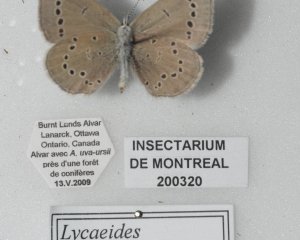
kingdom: Animalia
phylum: Arthropoda
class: Insecta
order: Lepidoptera
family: Lycaenidae
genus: Glaucopsyche
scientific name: Glaucopsyche lygdamus
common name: Silvery Blue
